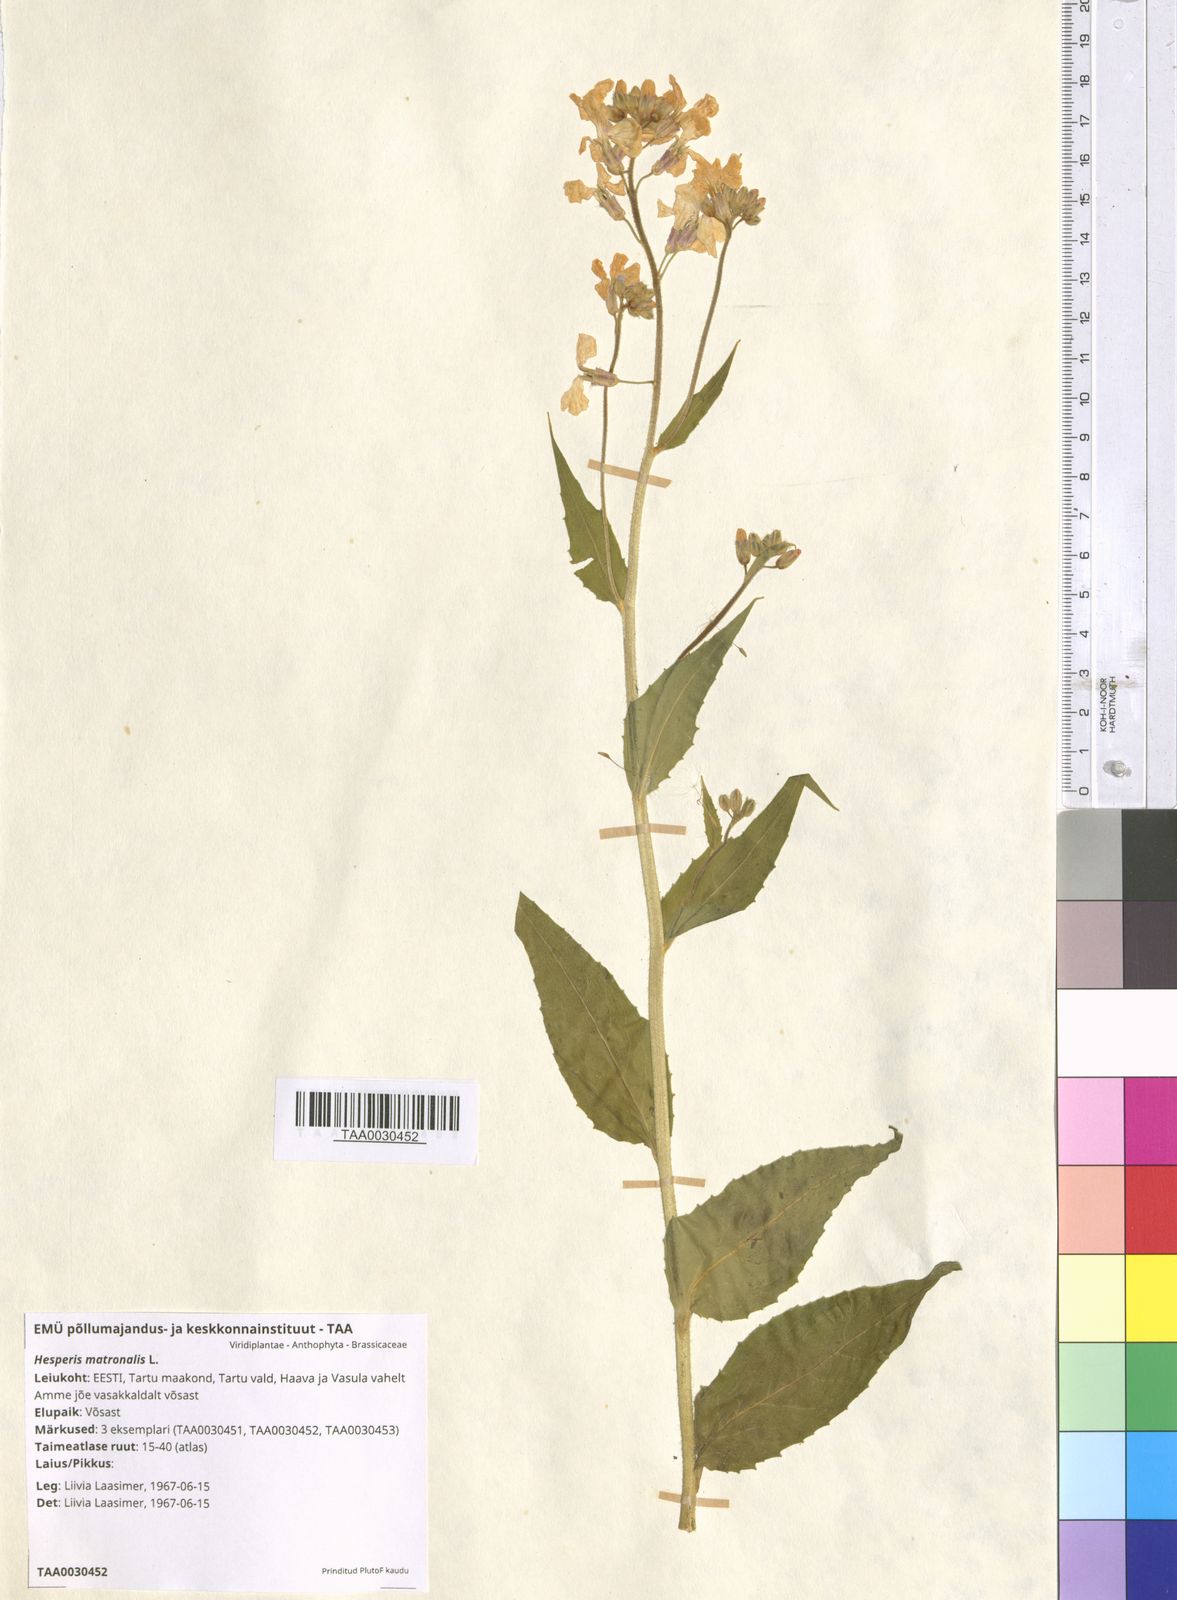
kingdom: Plantae
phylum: Tracheophyta
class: Magnoliopsida
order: Brassicales
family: Brassicaceae
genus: Hesperis
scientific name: Hesperis matronalis
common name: Dame's-violet
